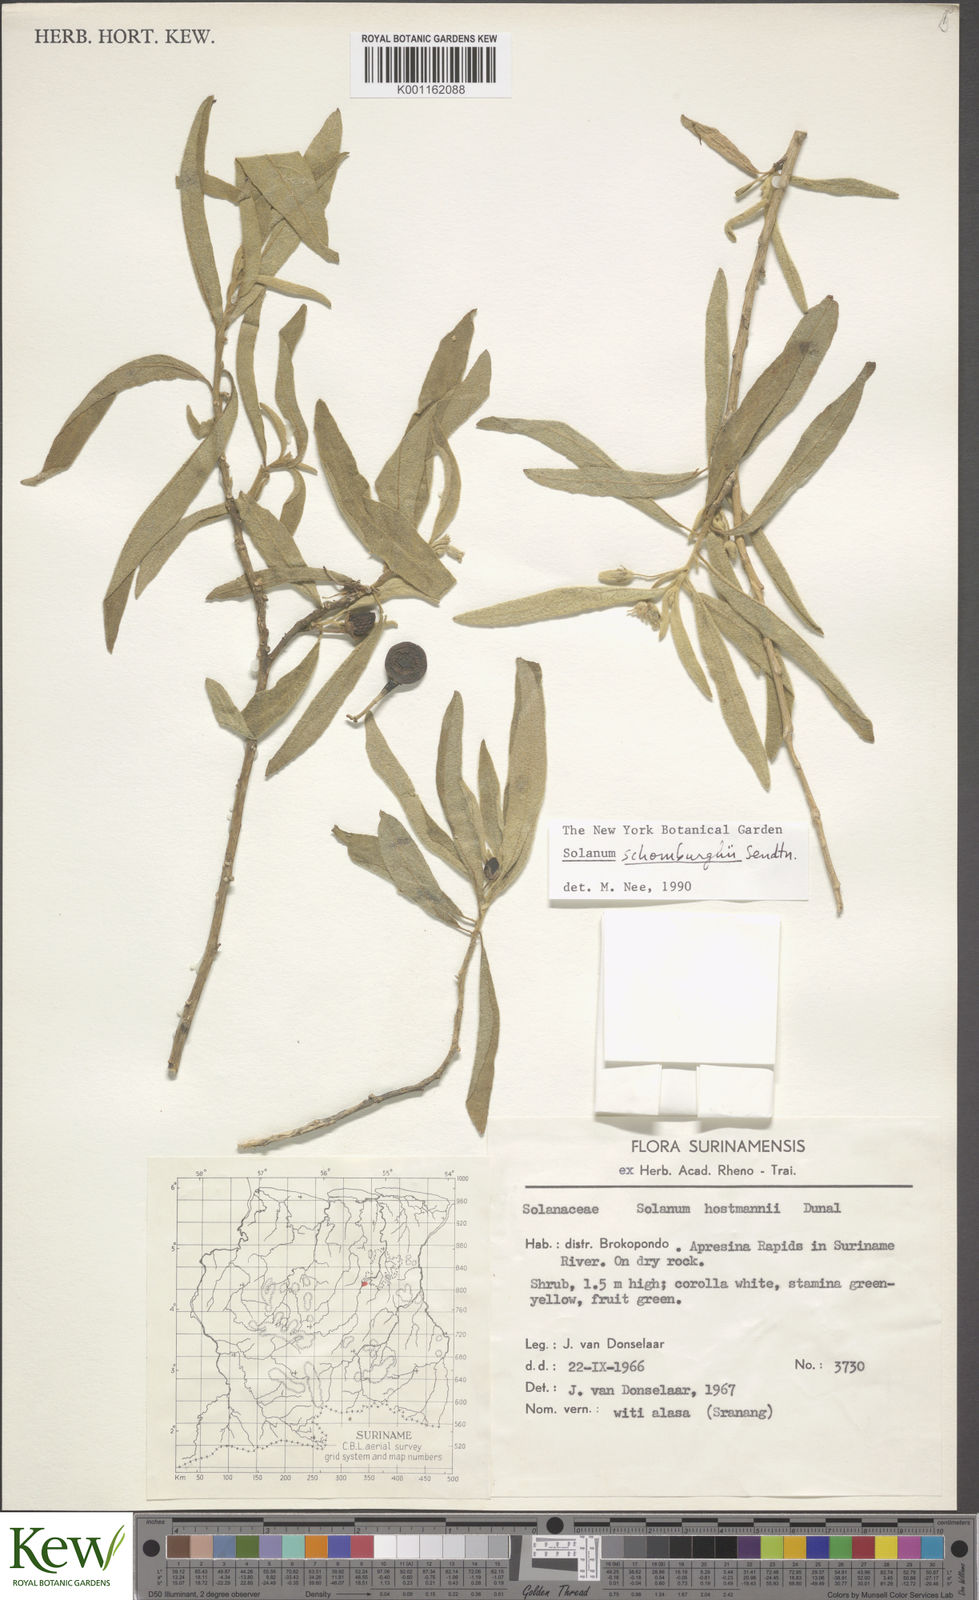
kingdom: Plantae
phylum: Tracheophyta
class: Magnoliopsida
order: Solanales
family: Solanaceae
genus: Solanum
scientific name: Solanum
